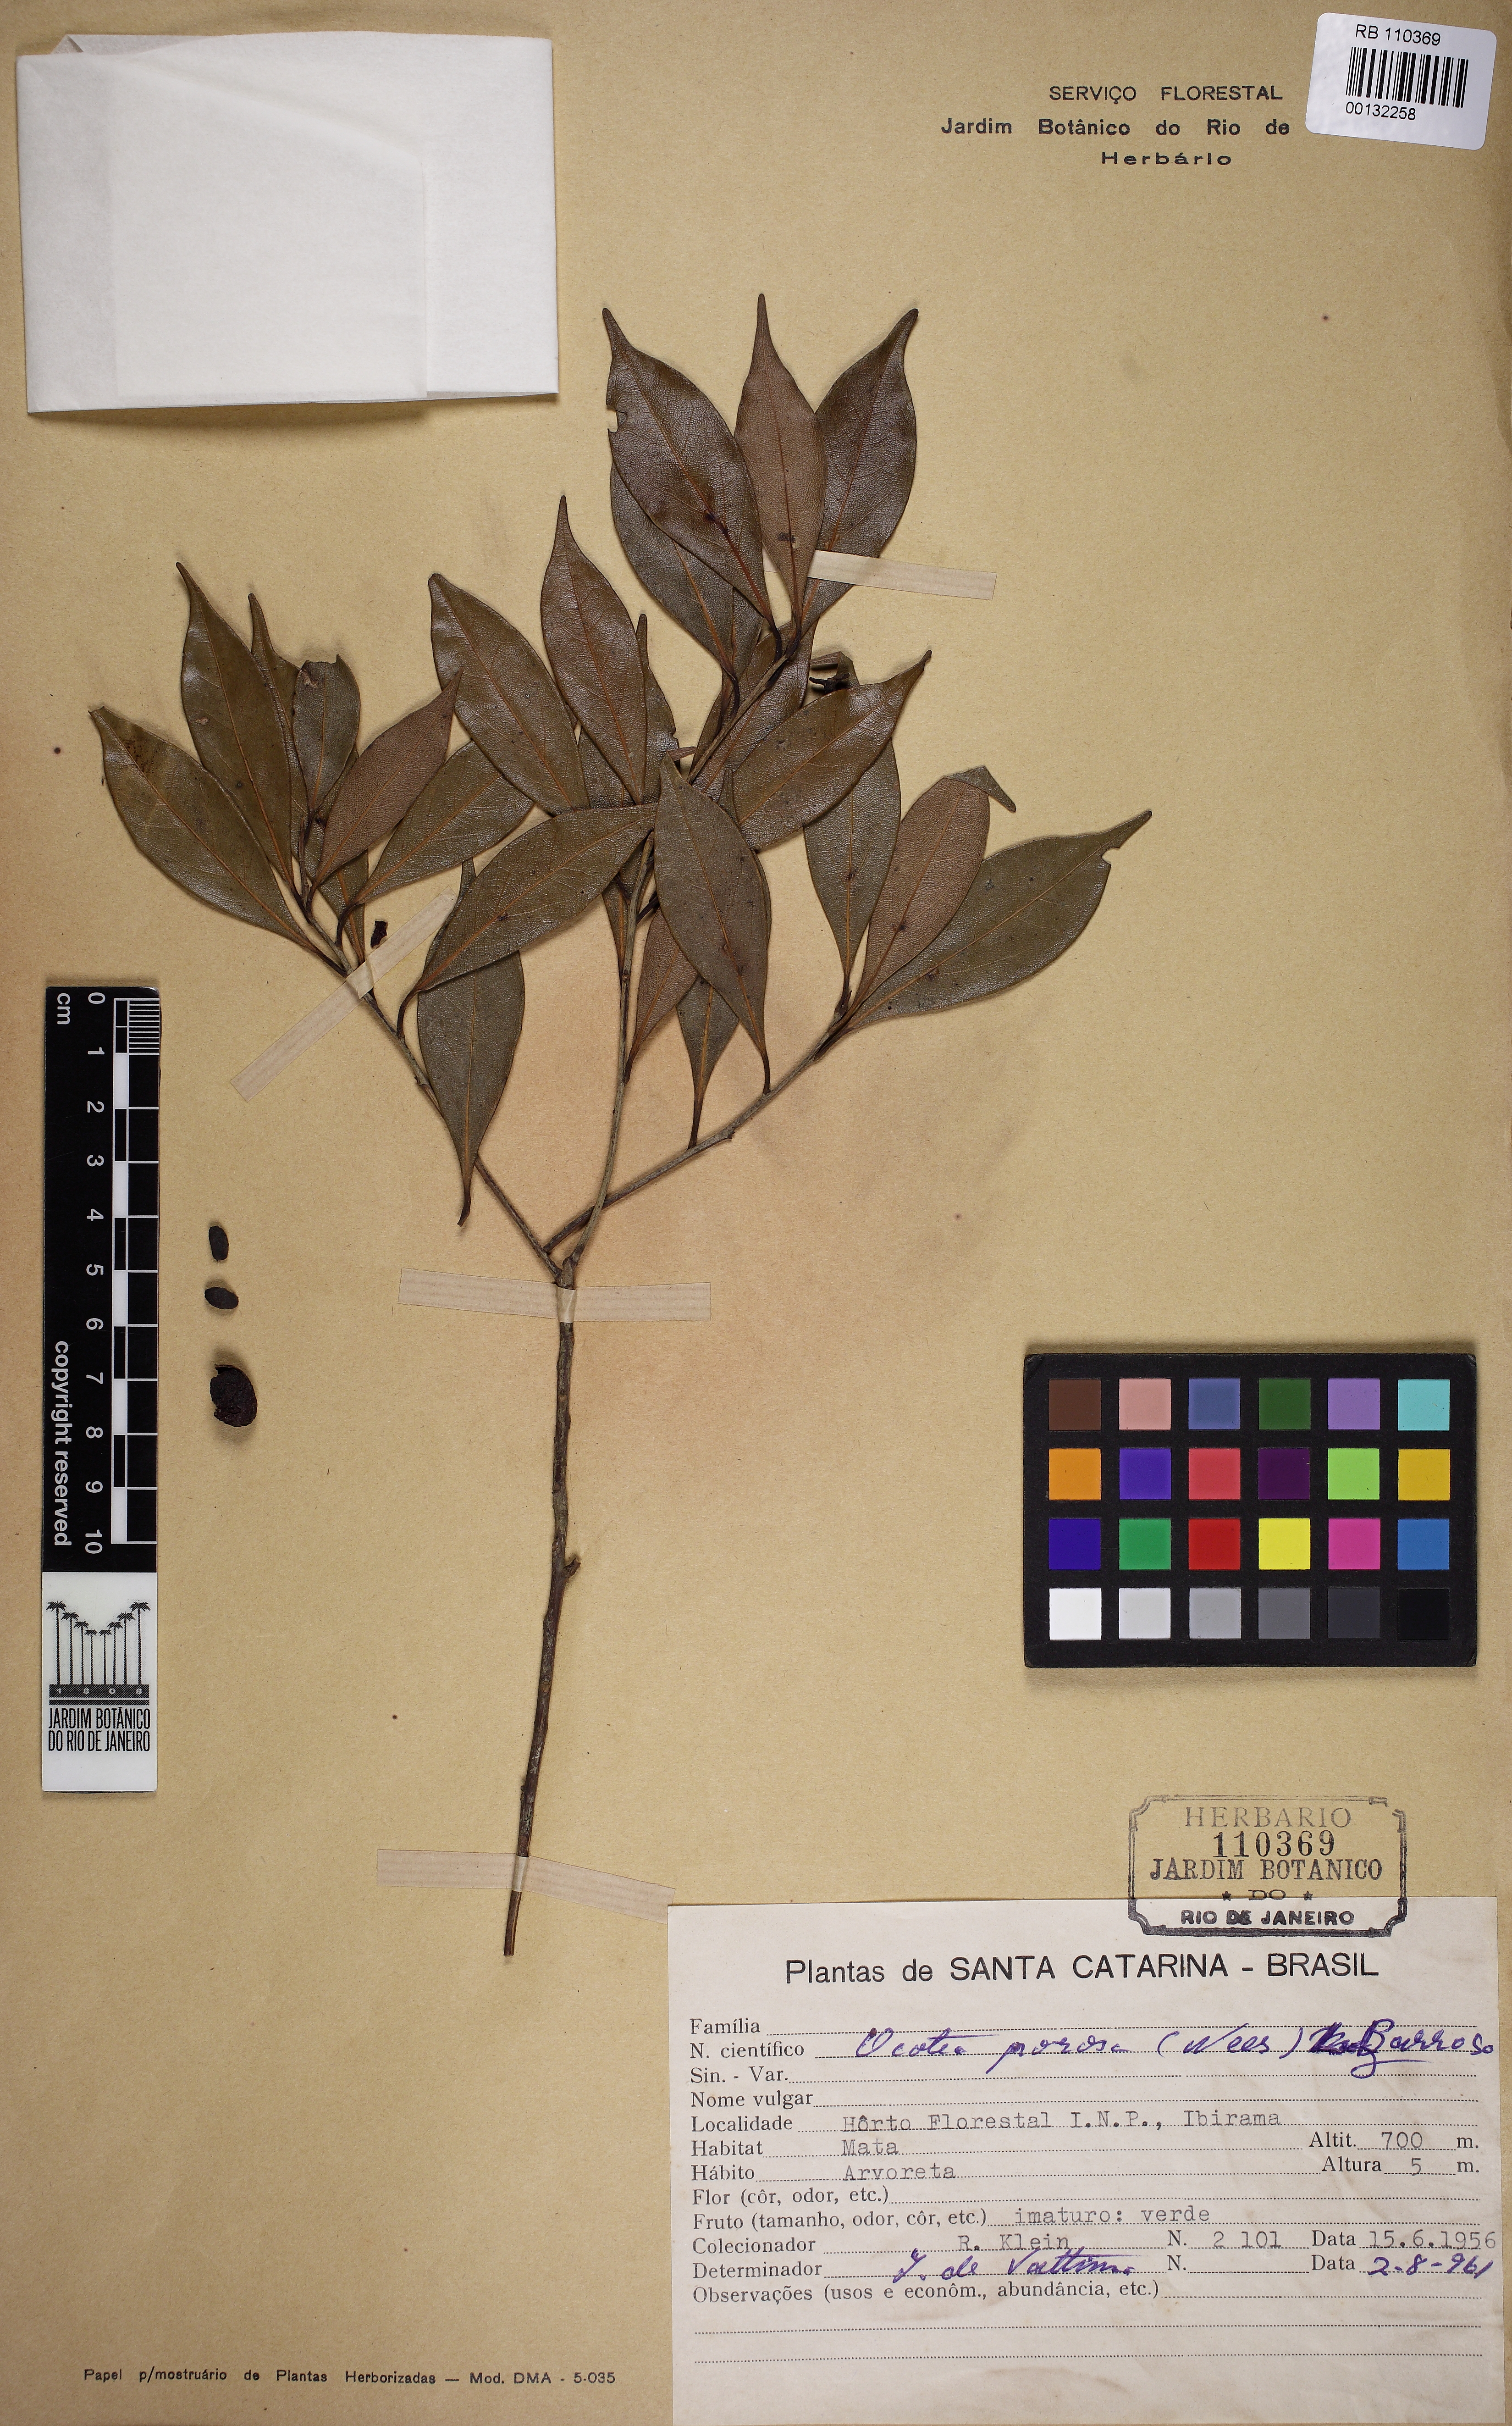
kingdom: Plantae
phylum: Tracheophyta
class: Magnoliopsida
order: Laurales
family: Lauraceae
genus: Ocotea
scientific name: Ocotea porosa
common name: Brazilian-walnut
